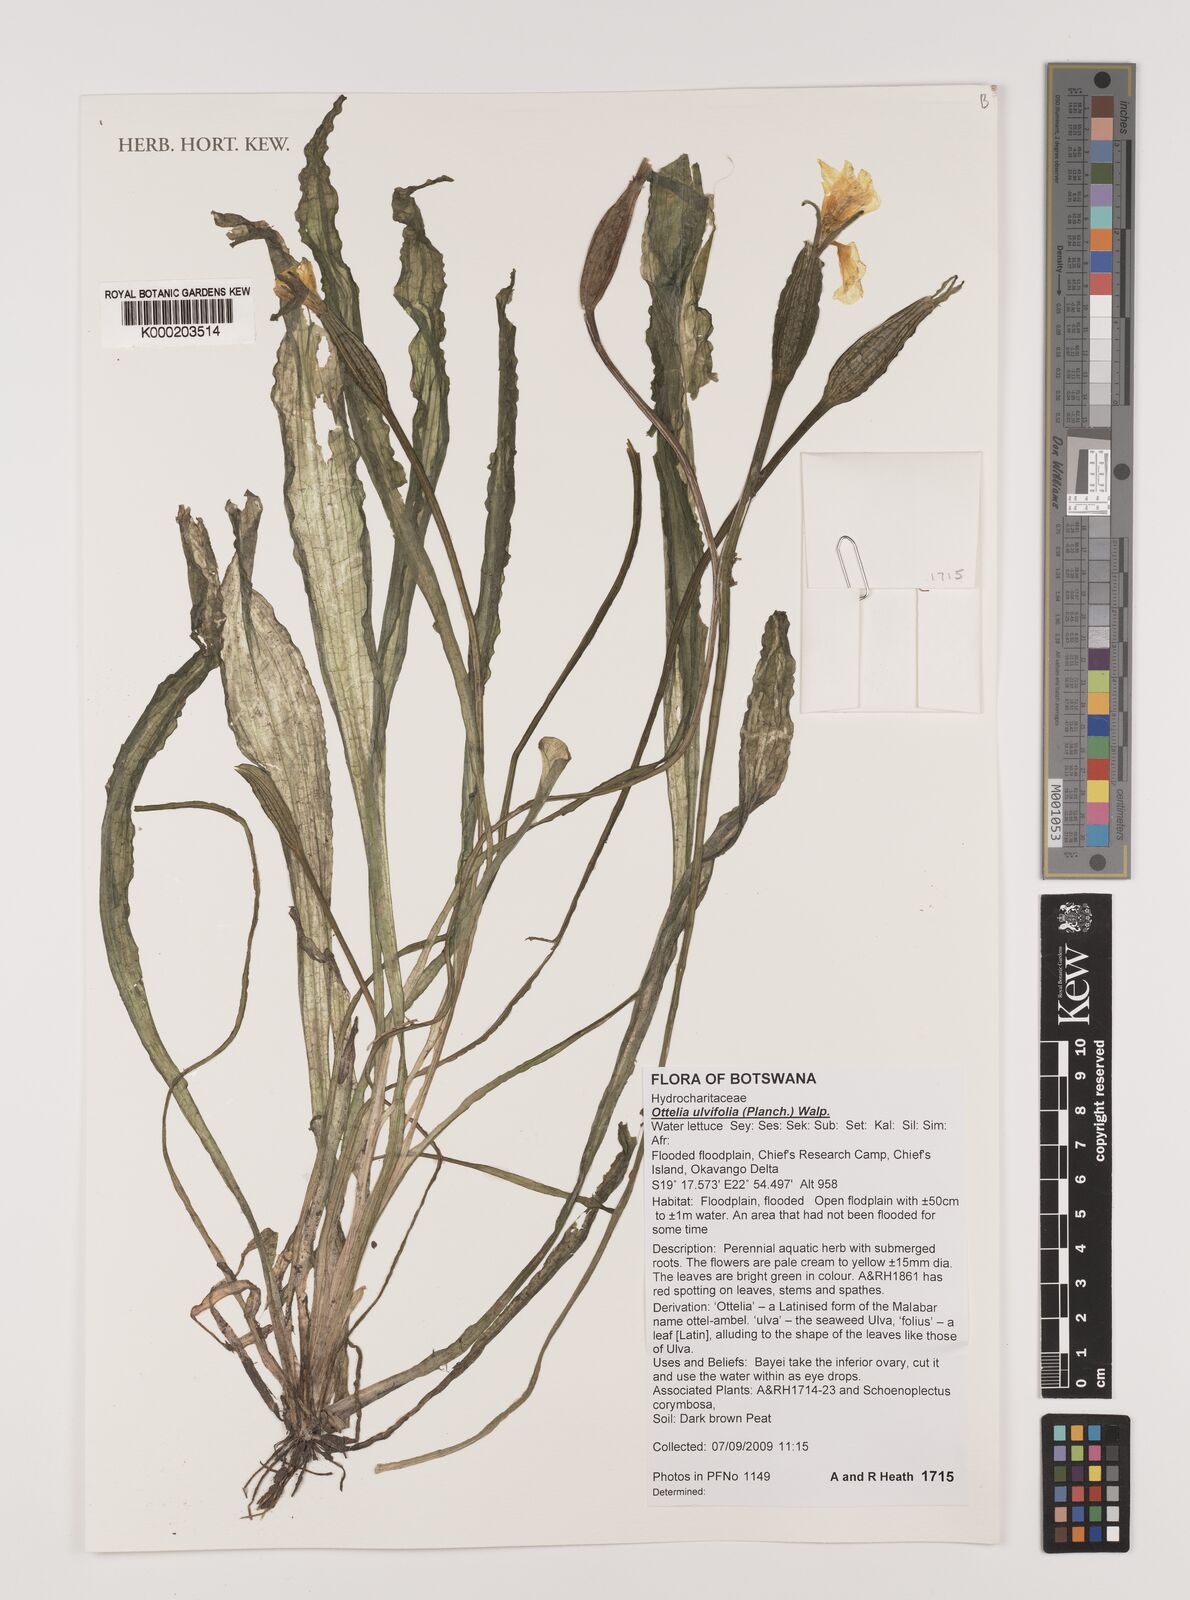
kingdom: Plantae
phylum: Tracheophyta
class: Liliopsida
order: Alismatales
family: Hydrocharitaceae
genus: Ottelia
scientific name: Ottelia ulvifolia
